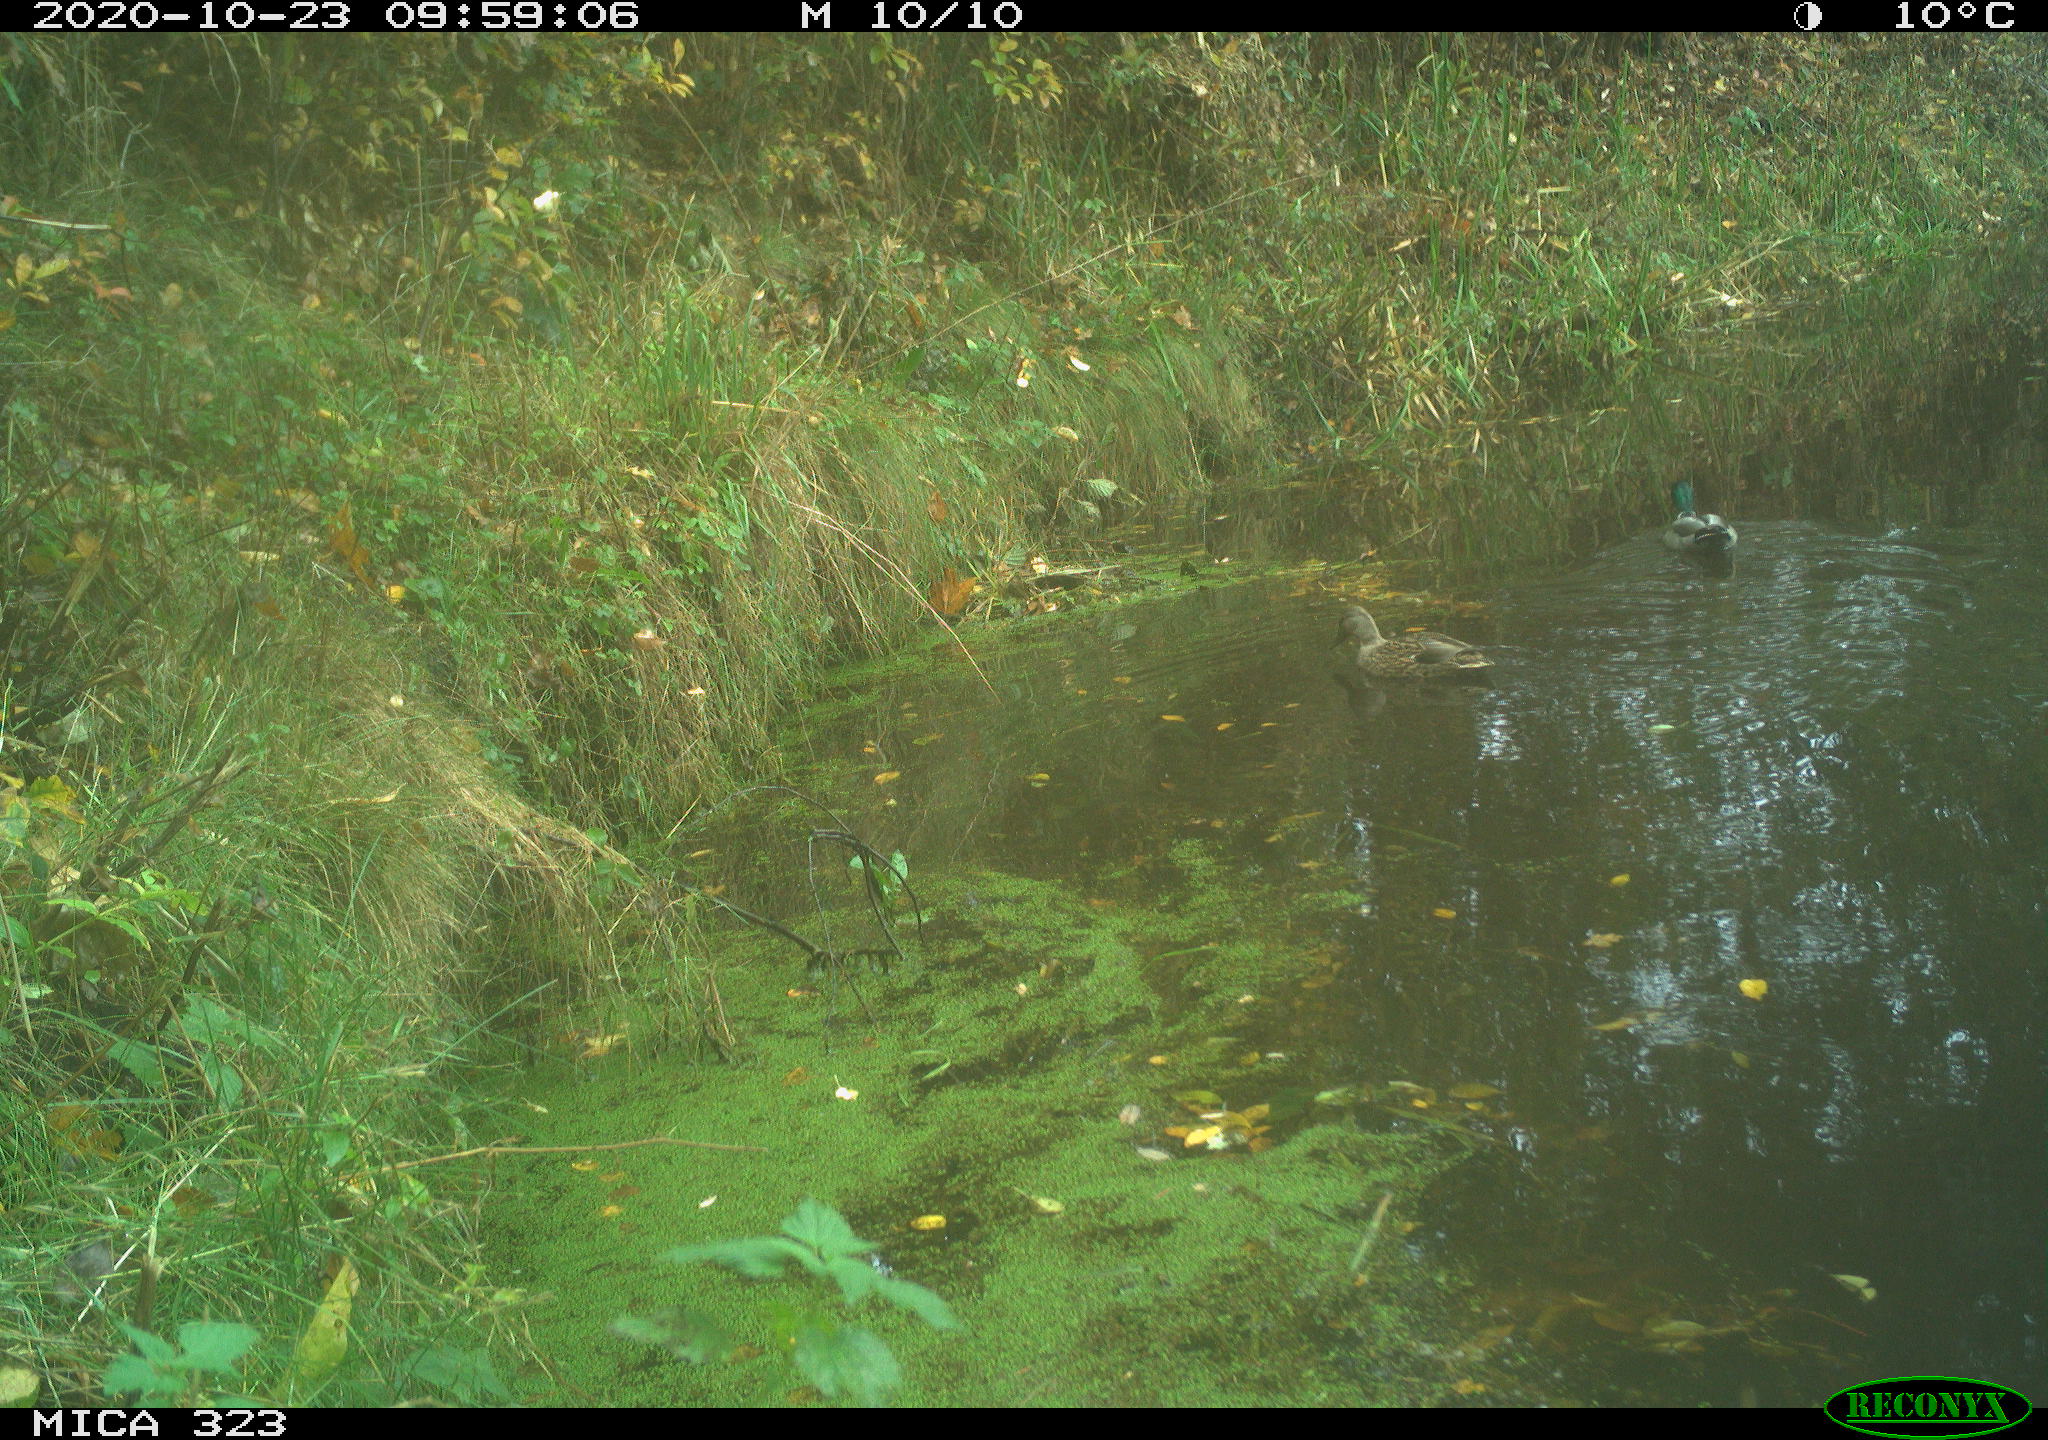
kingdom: Animalia
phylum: Chordata
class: Aves
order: Anseriformes
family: Anatidae
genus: Anas
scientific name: Anas platyrhynchos
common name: Mallard
